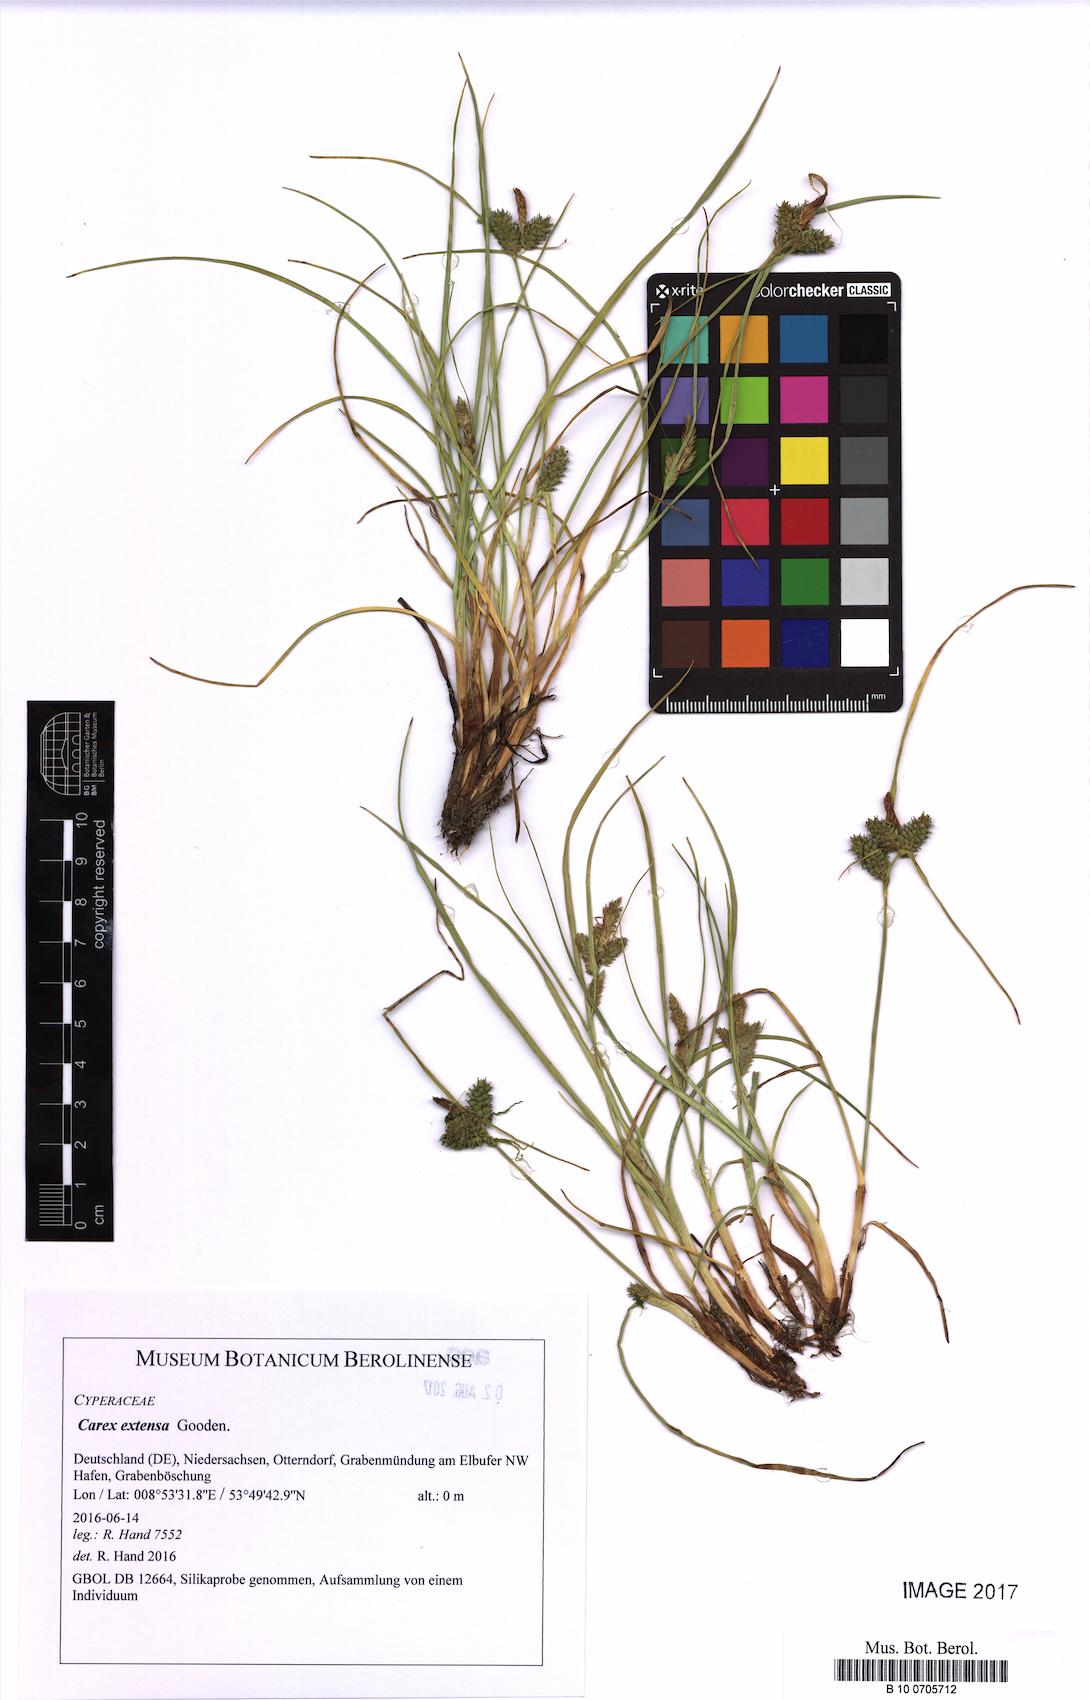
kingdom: Plantae
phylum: Tracheophyta
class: Liliopsida
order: Poales
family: Cyperaceae
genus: Carex
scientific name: Carex extensa
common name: Long-bracted sedge
